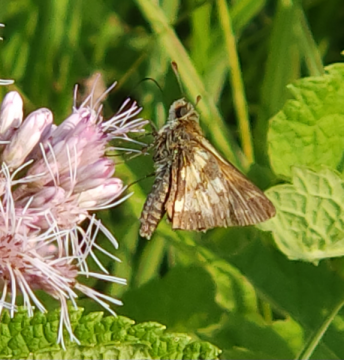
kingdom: Animalia
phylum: Arthropoda
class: Insecta
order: Lepidoptera
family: Hesperiidae
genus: Polites
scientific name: Polites coras
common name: Peck's Skipper
